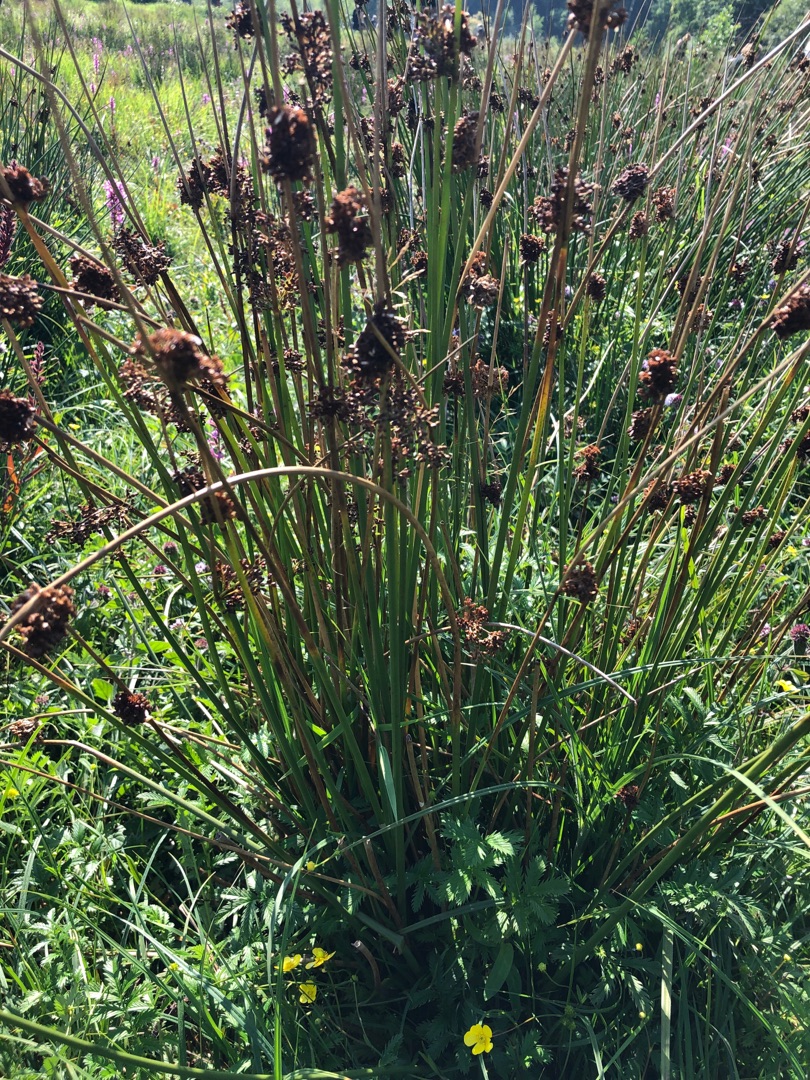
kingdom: Plantae
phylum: Tracheophyta
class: Liliopsida
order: Poales
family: Juncaceae
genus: Juncus
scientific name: Juncus effusus
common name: Lyse-siv
